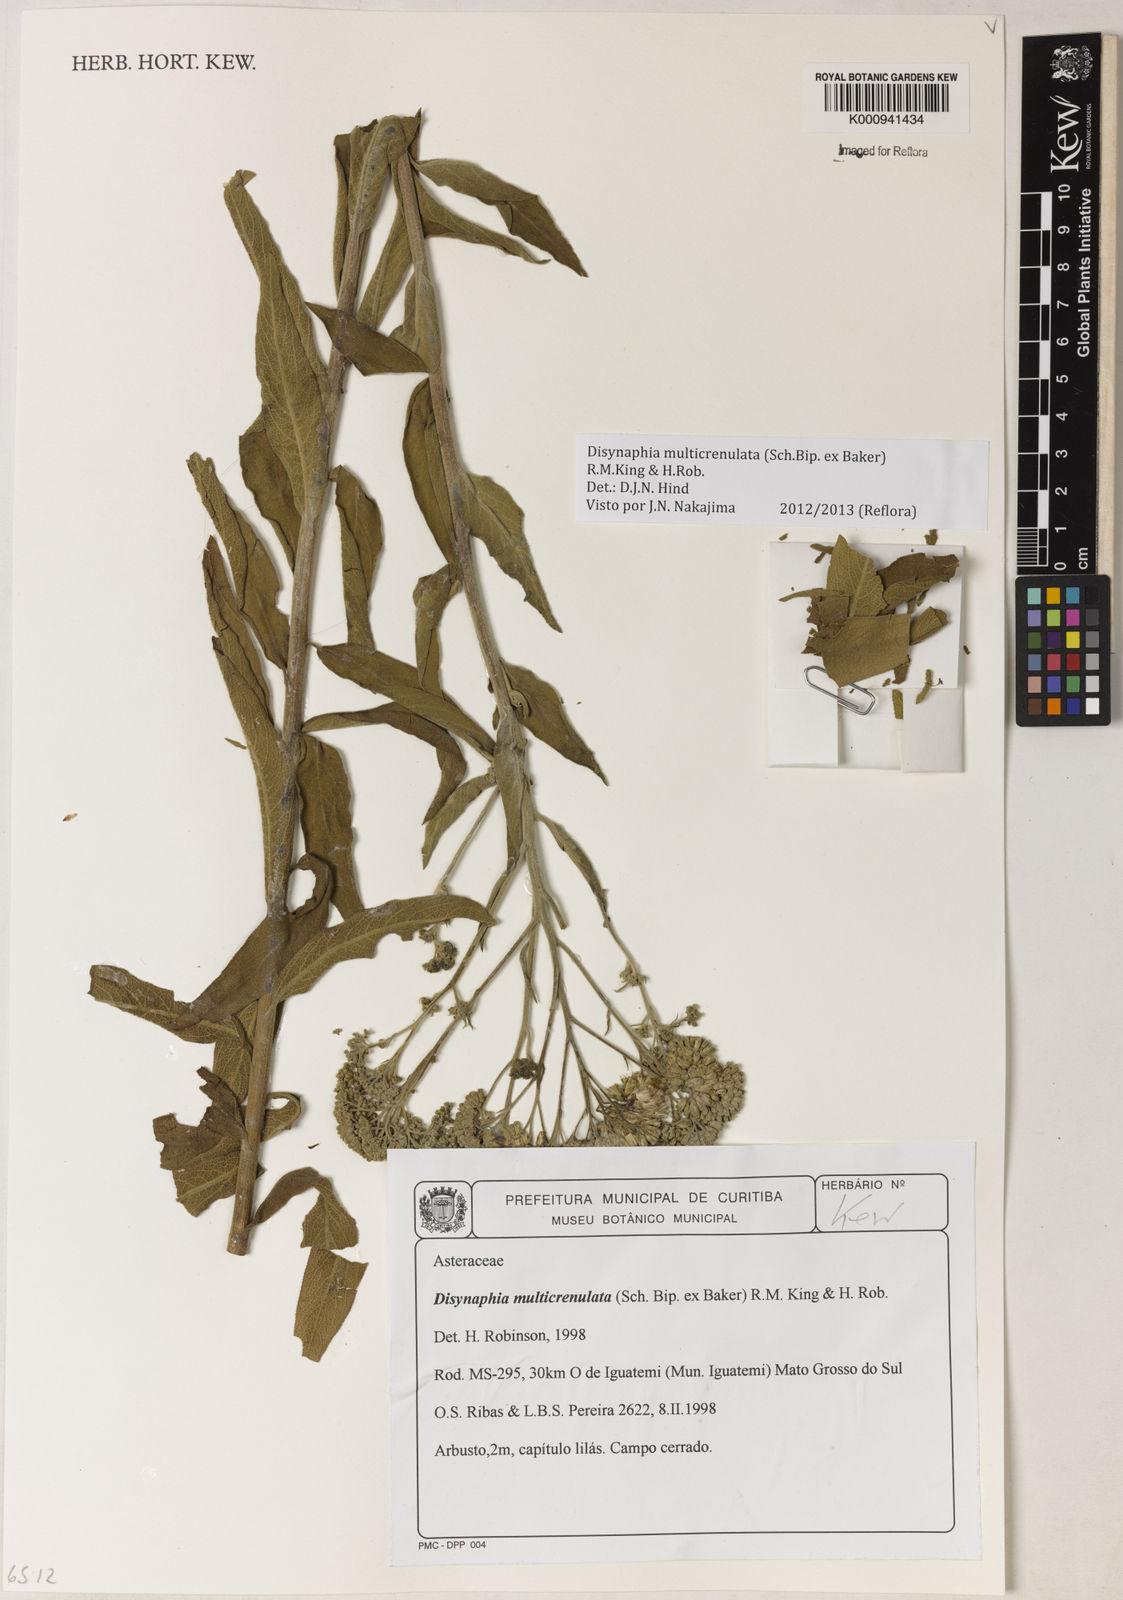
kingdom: Plantae
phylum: Tracheophyta
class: Magnoliopsida
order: Asterales
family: Asteraceae
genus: Disynaphia
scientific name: Disynaphia multicrenulata
